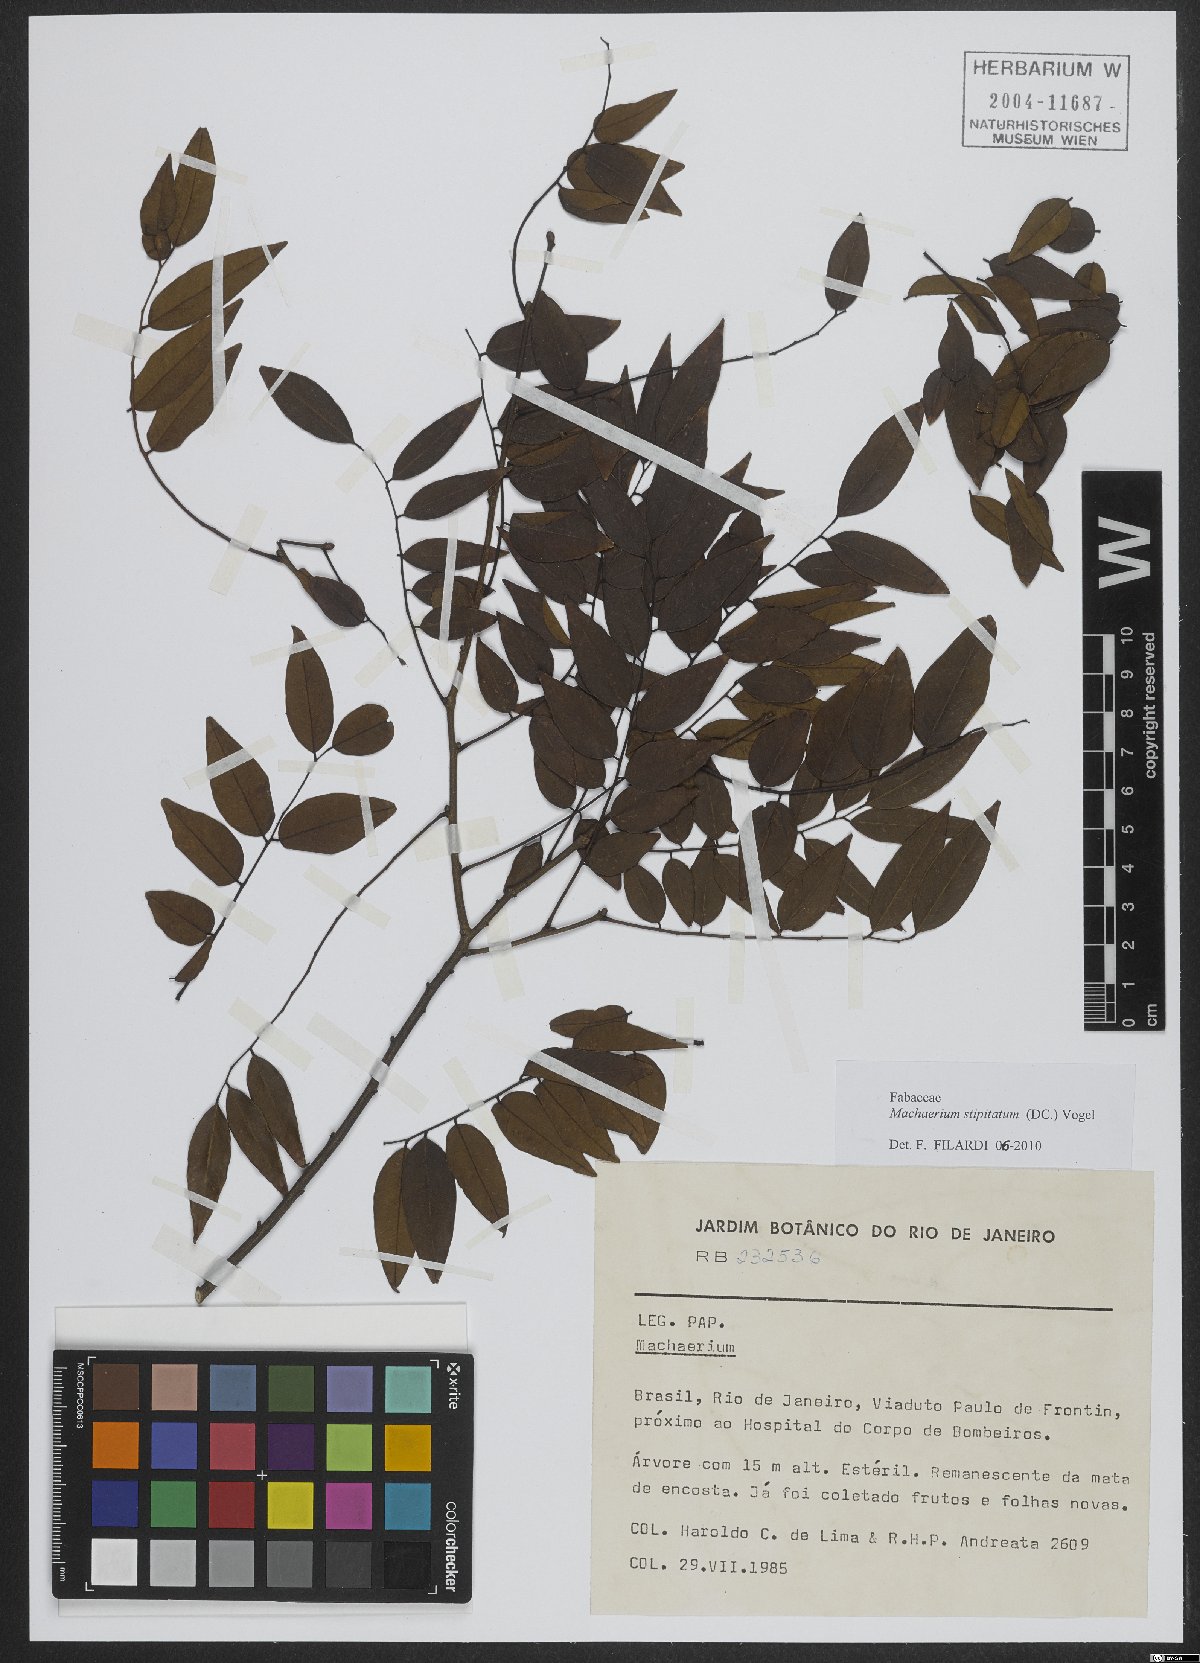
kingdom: Plantae
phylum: Tracheophyta
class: Magnoliopsida
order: Fabales
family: Fabaceae
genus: Machaerium
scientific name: Machaerium stipitatum
